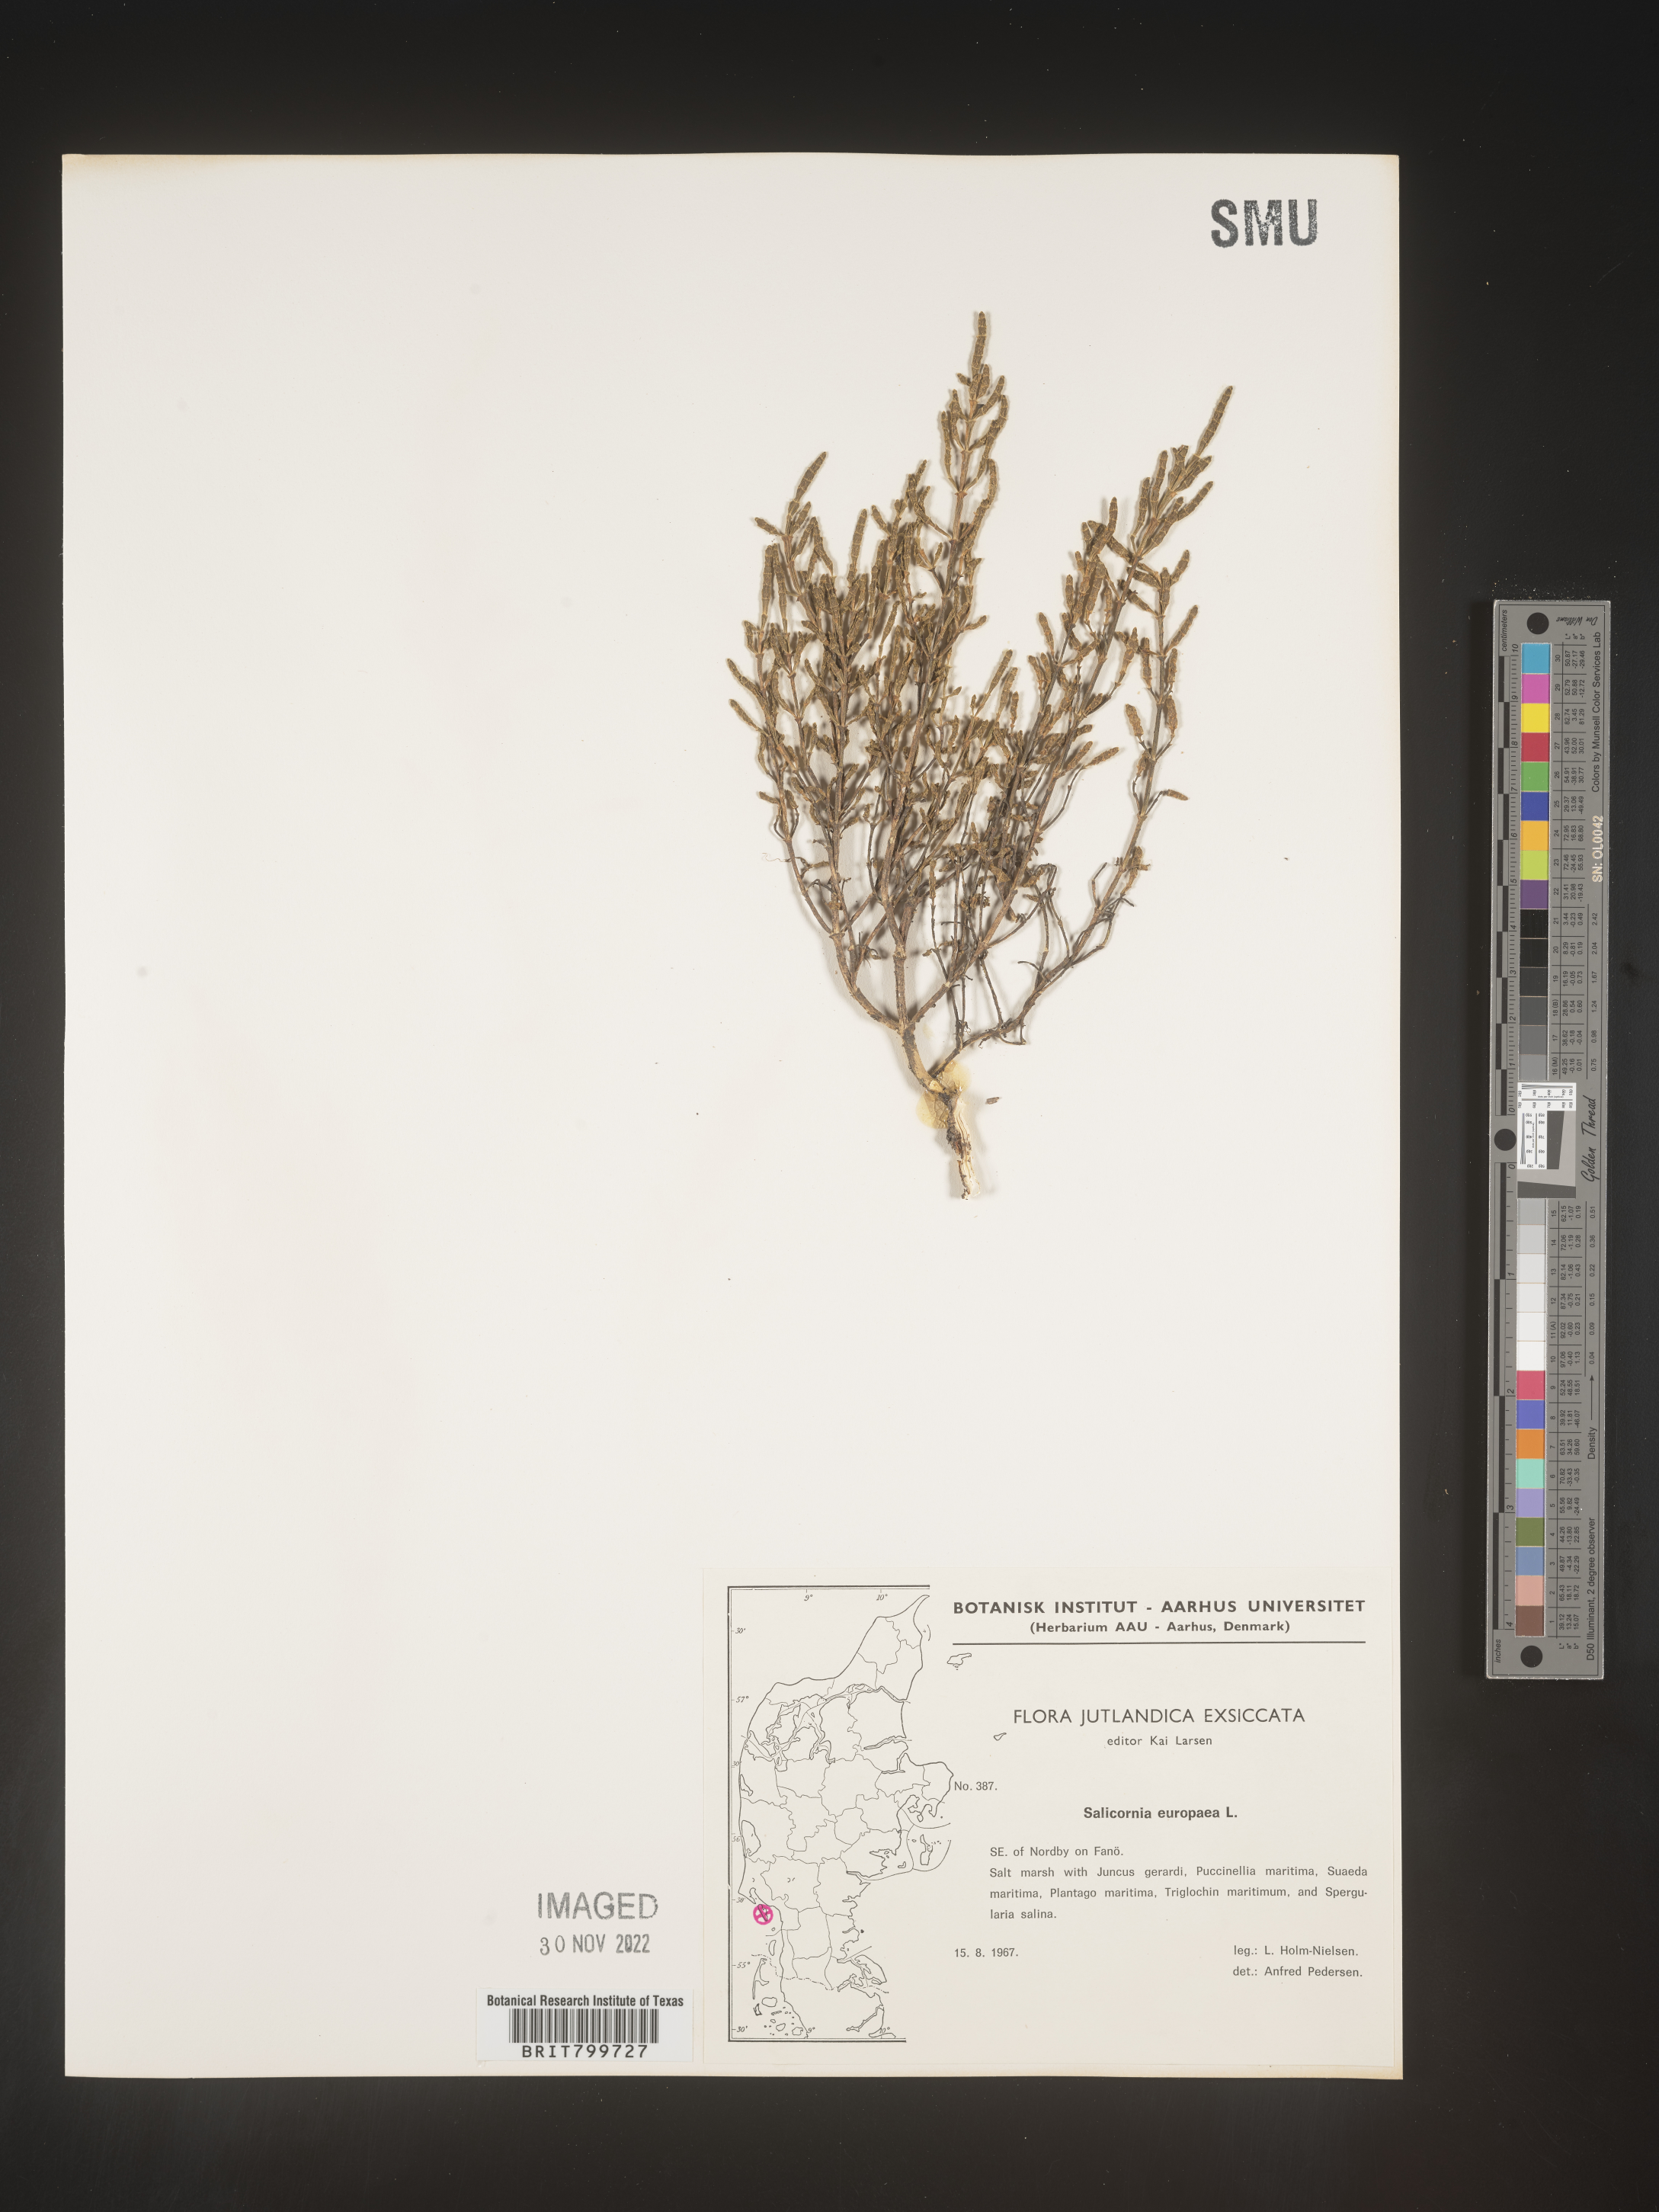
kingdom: Plantae
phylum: Tracheophyta
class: Magnoliopsida
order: Caryophyllales
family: Amaranthaceae
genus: Salicornia
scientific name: Salicornia
